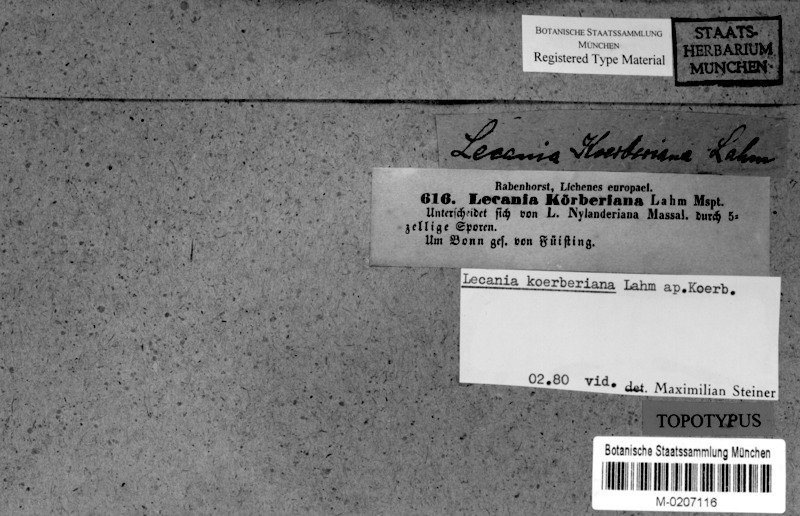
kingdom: Fungi
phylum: Ascomycota
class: Lecanoromycetes
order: Lecanorales
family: Ramalinaceae
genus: Lecania
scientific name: Lecania koerberiana
